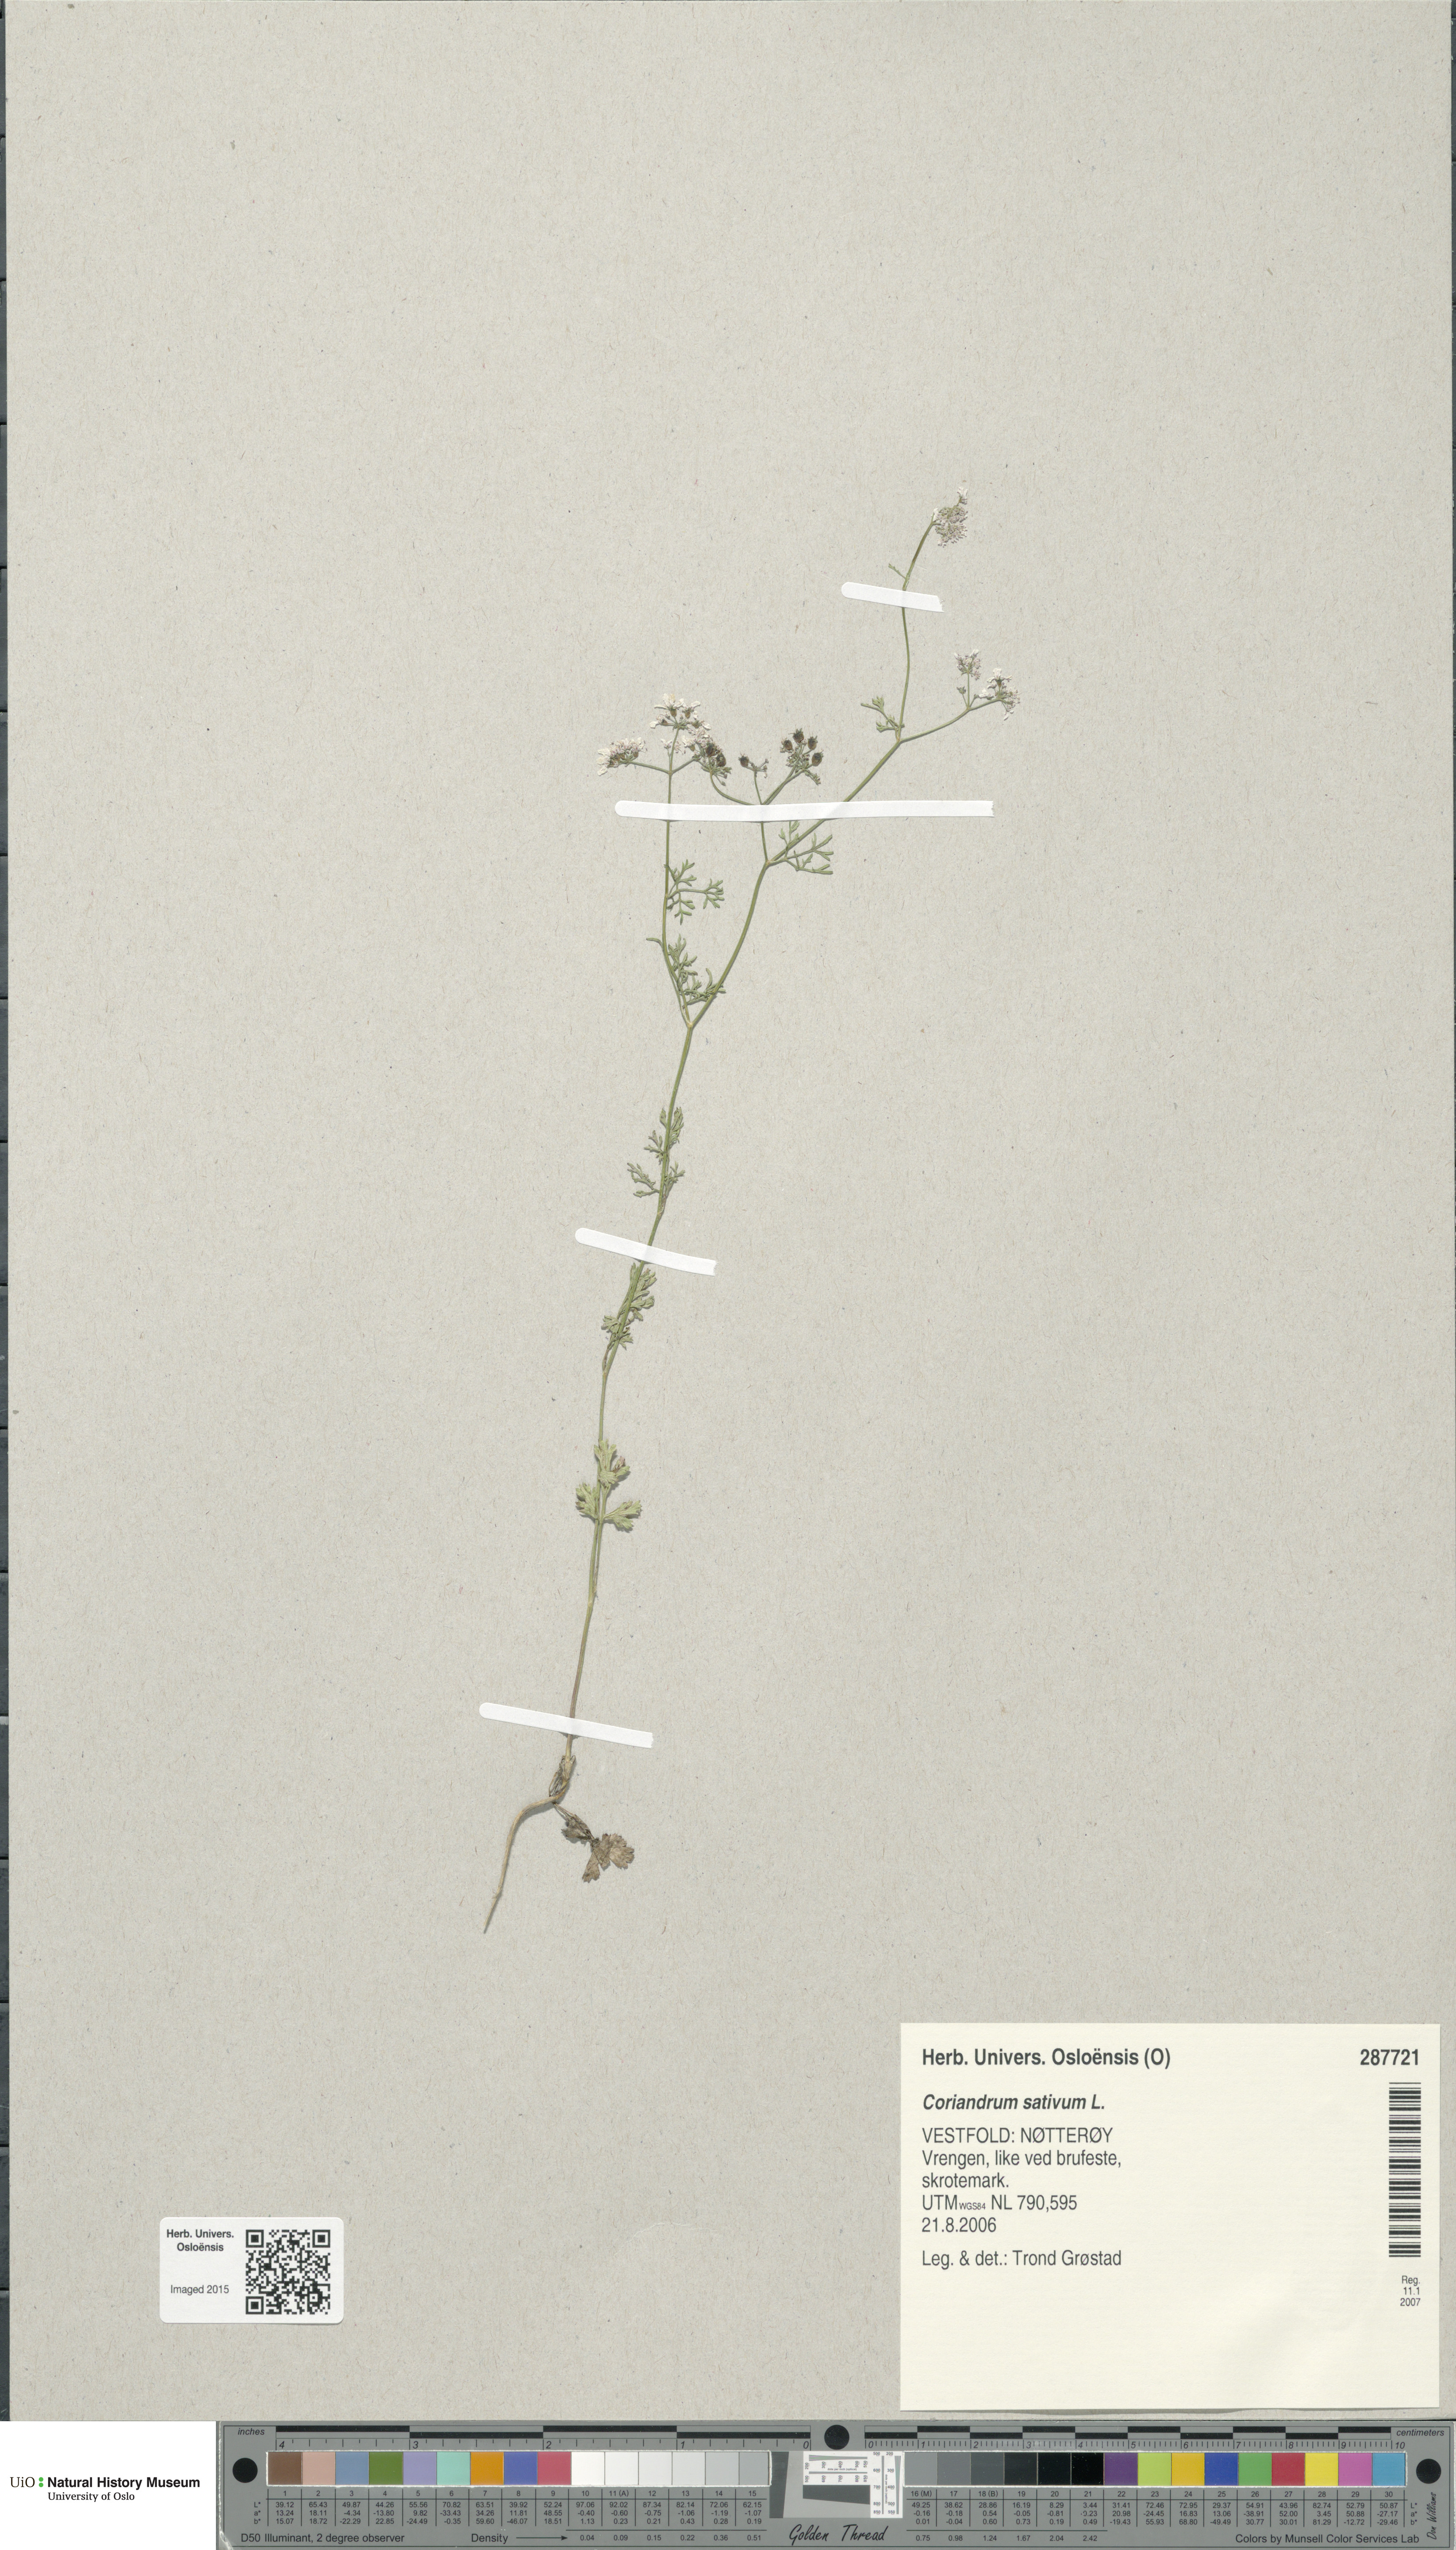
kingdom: Plantae
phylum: Tracheophyta
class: Magnoliopsida
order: Apiales
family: Apiaceae
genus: Coriandrum
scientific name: Coriandrum sativum
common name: Coriander
